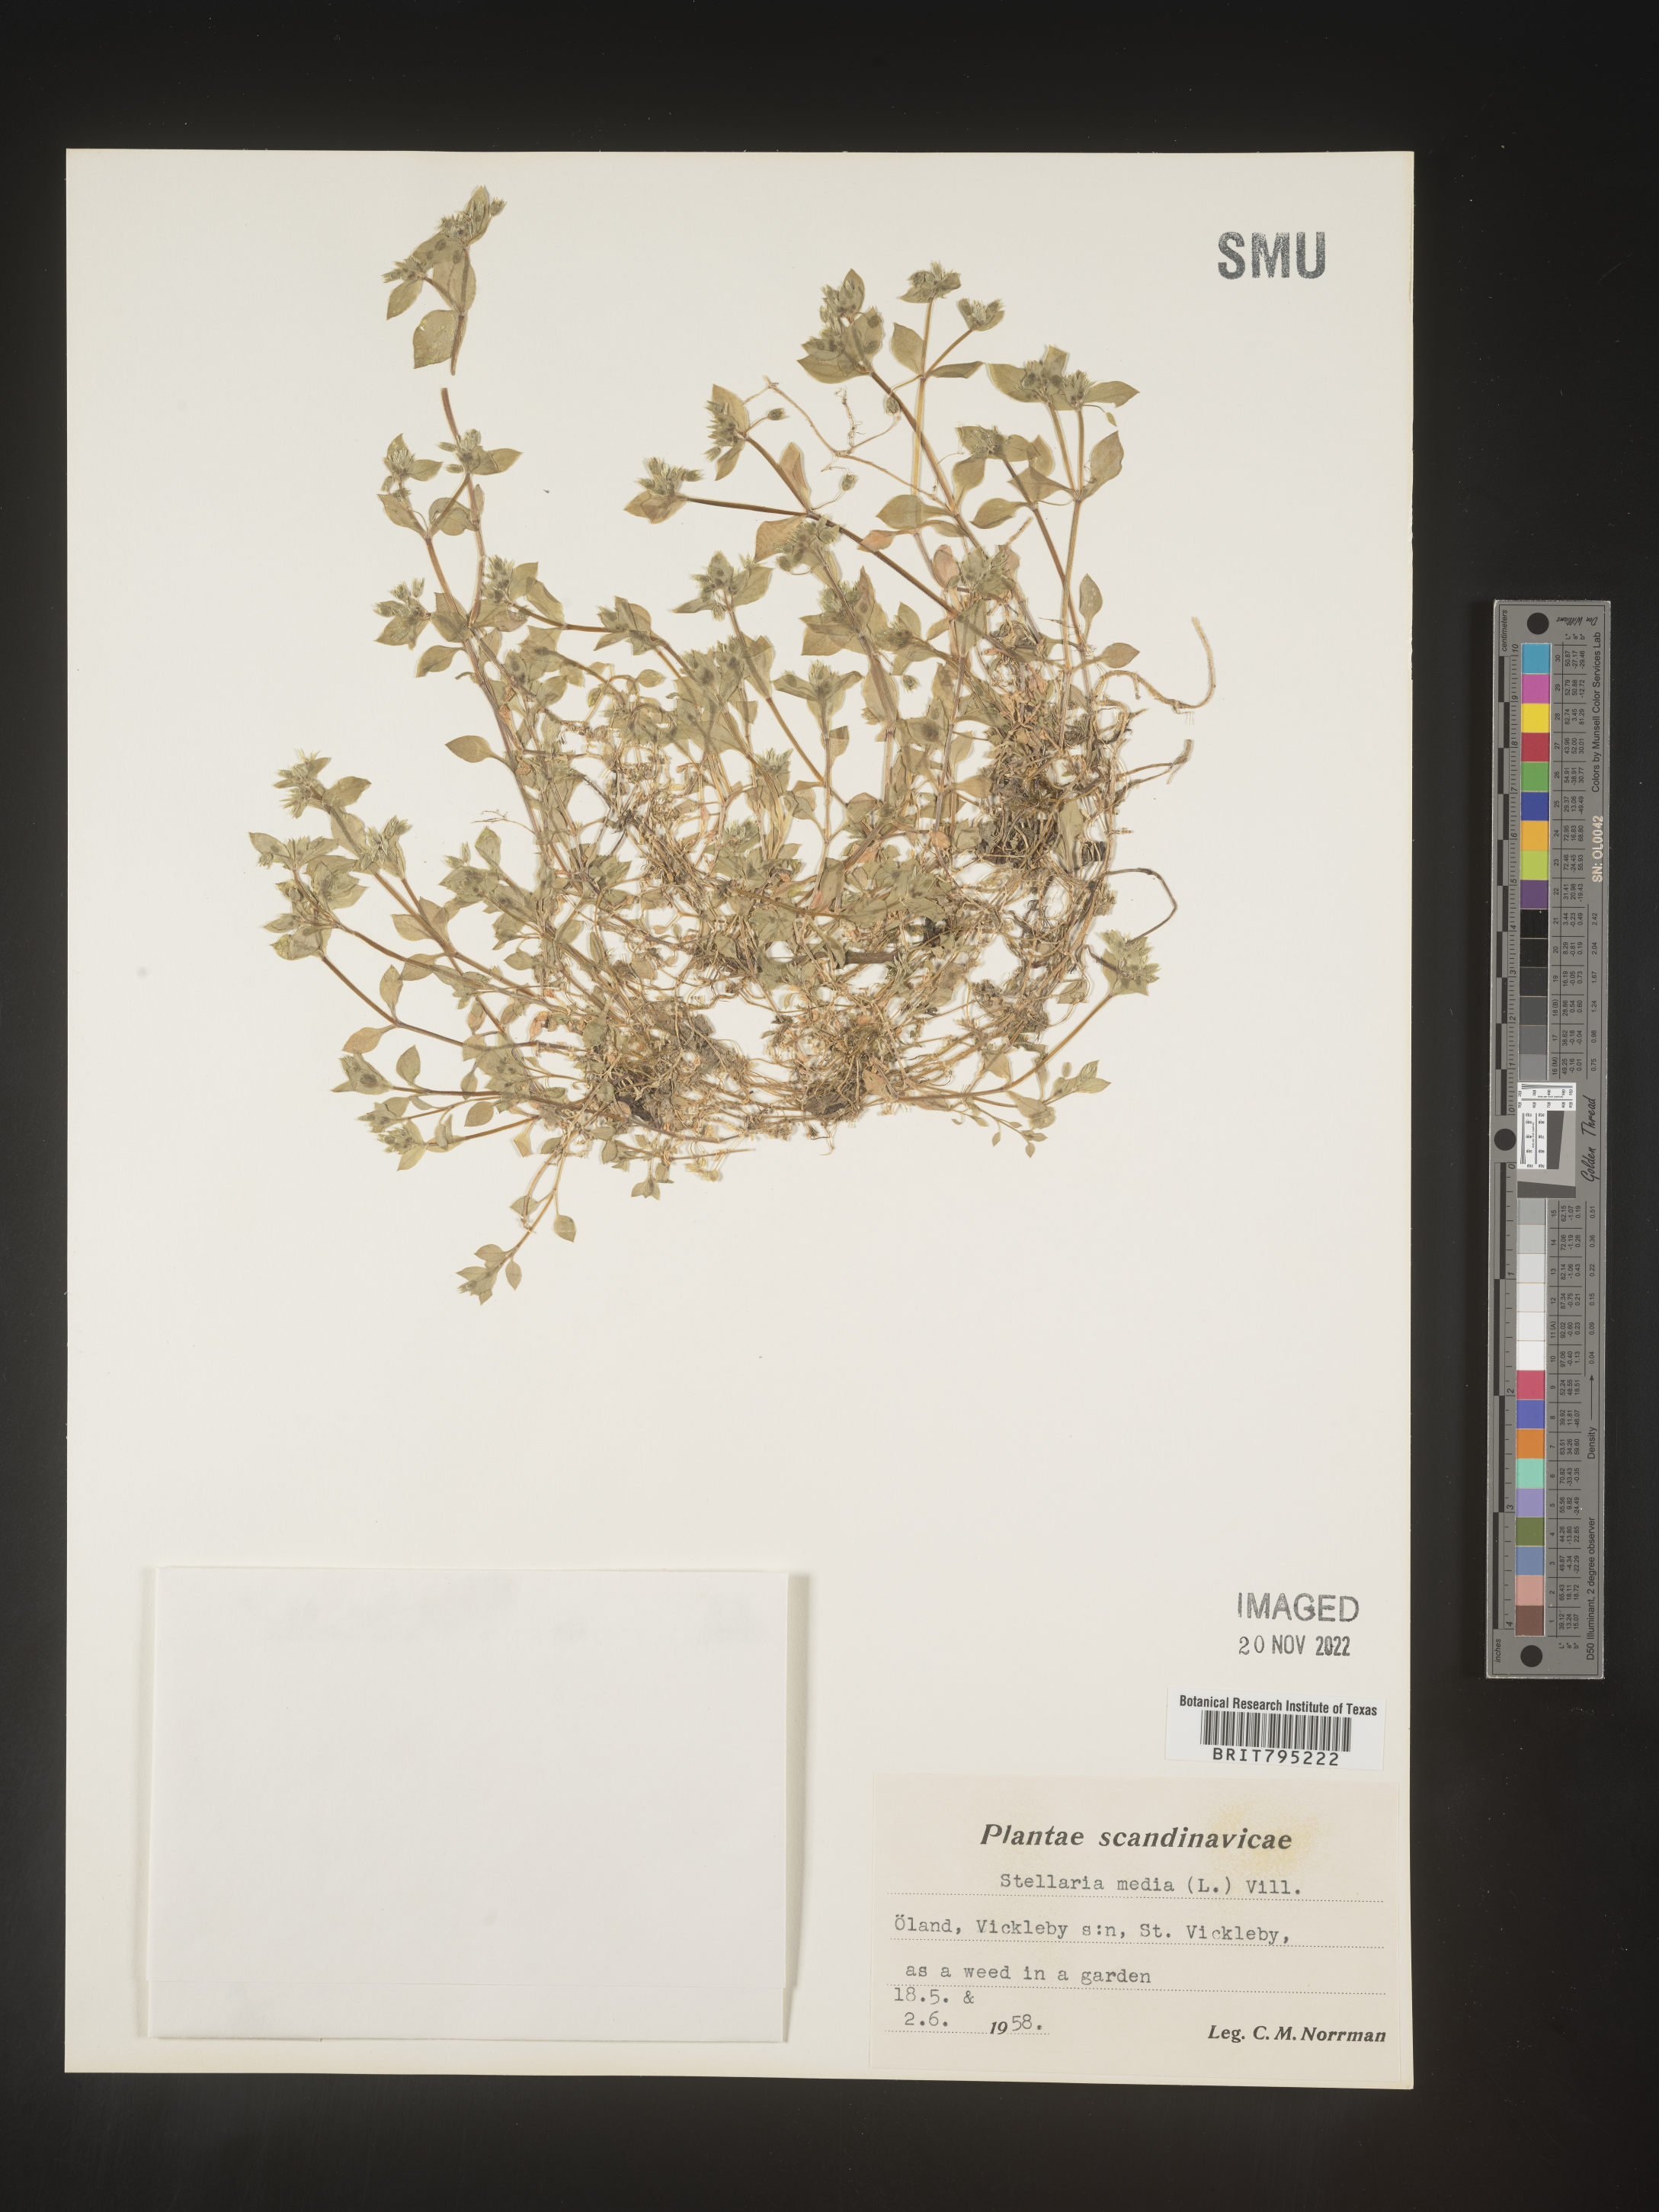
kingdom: Plantae
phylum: Tracheophyta
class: Magnoliopsida
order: Caryophyllales
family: Caryophyllaceae
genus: Stellaria
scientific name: Stellaria
